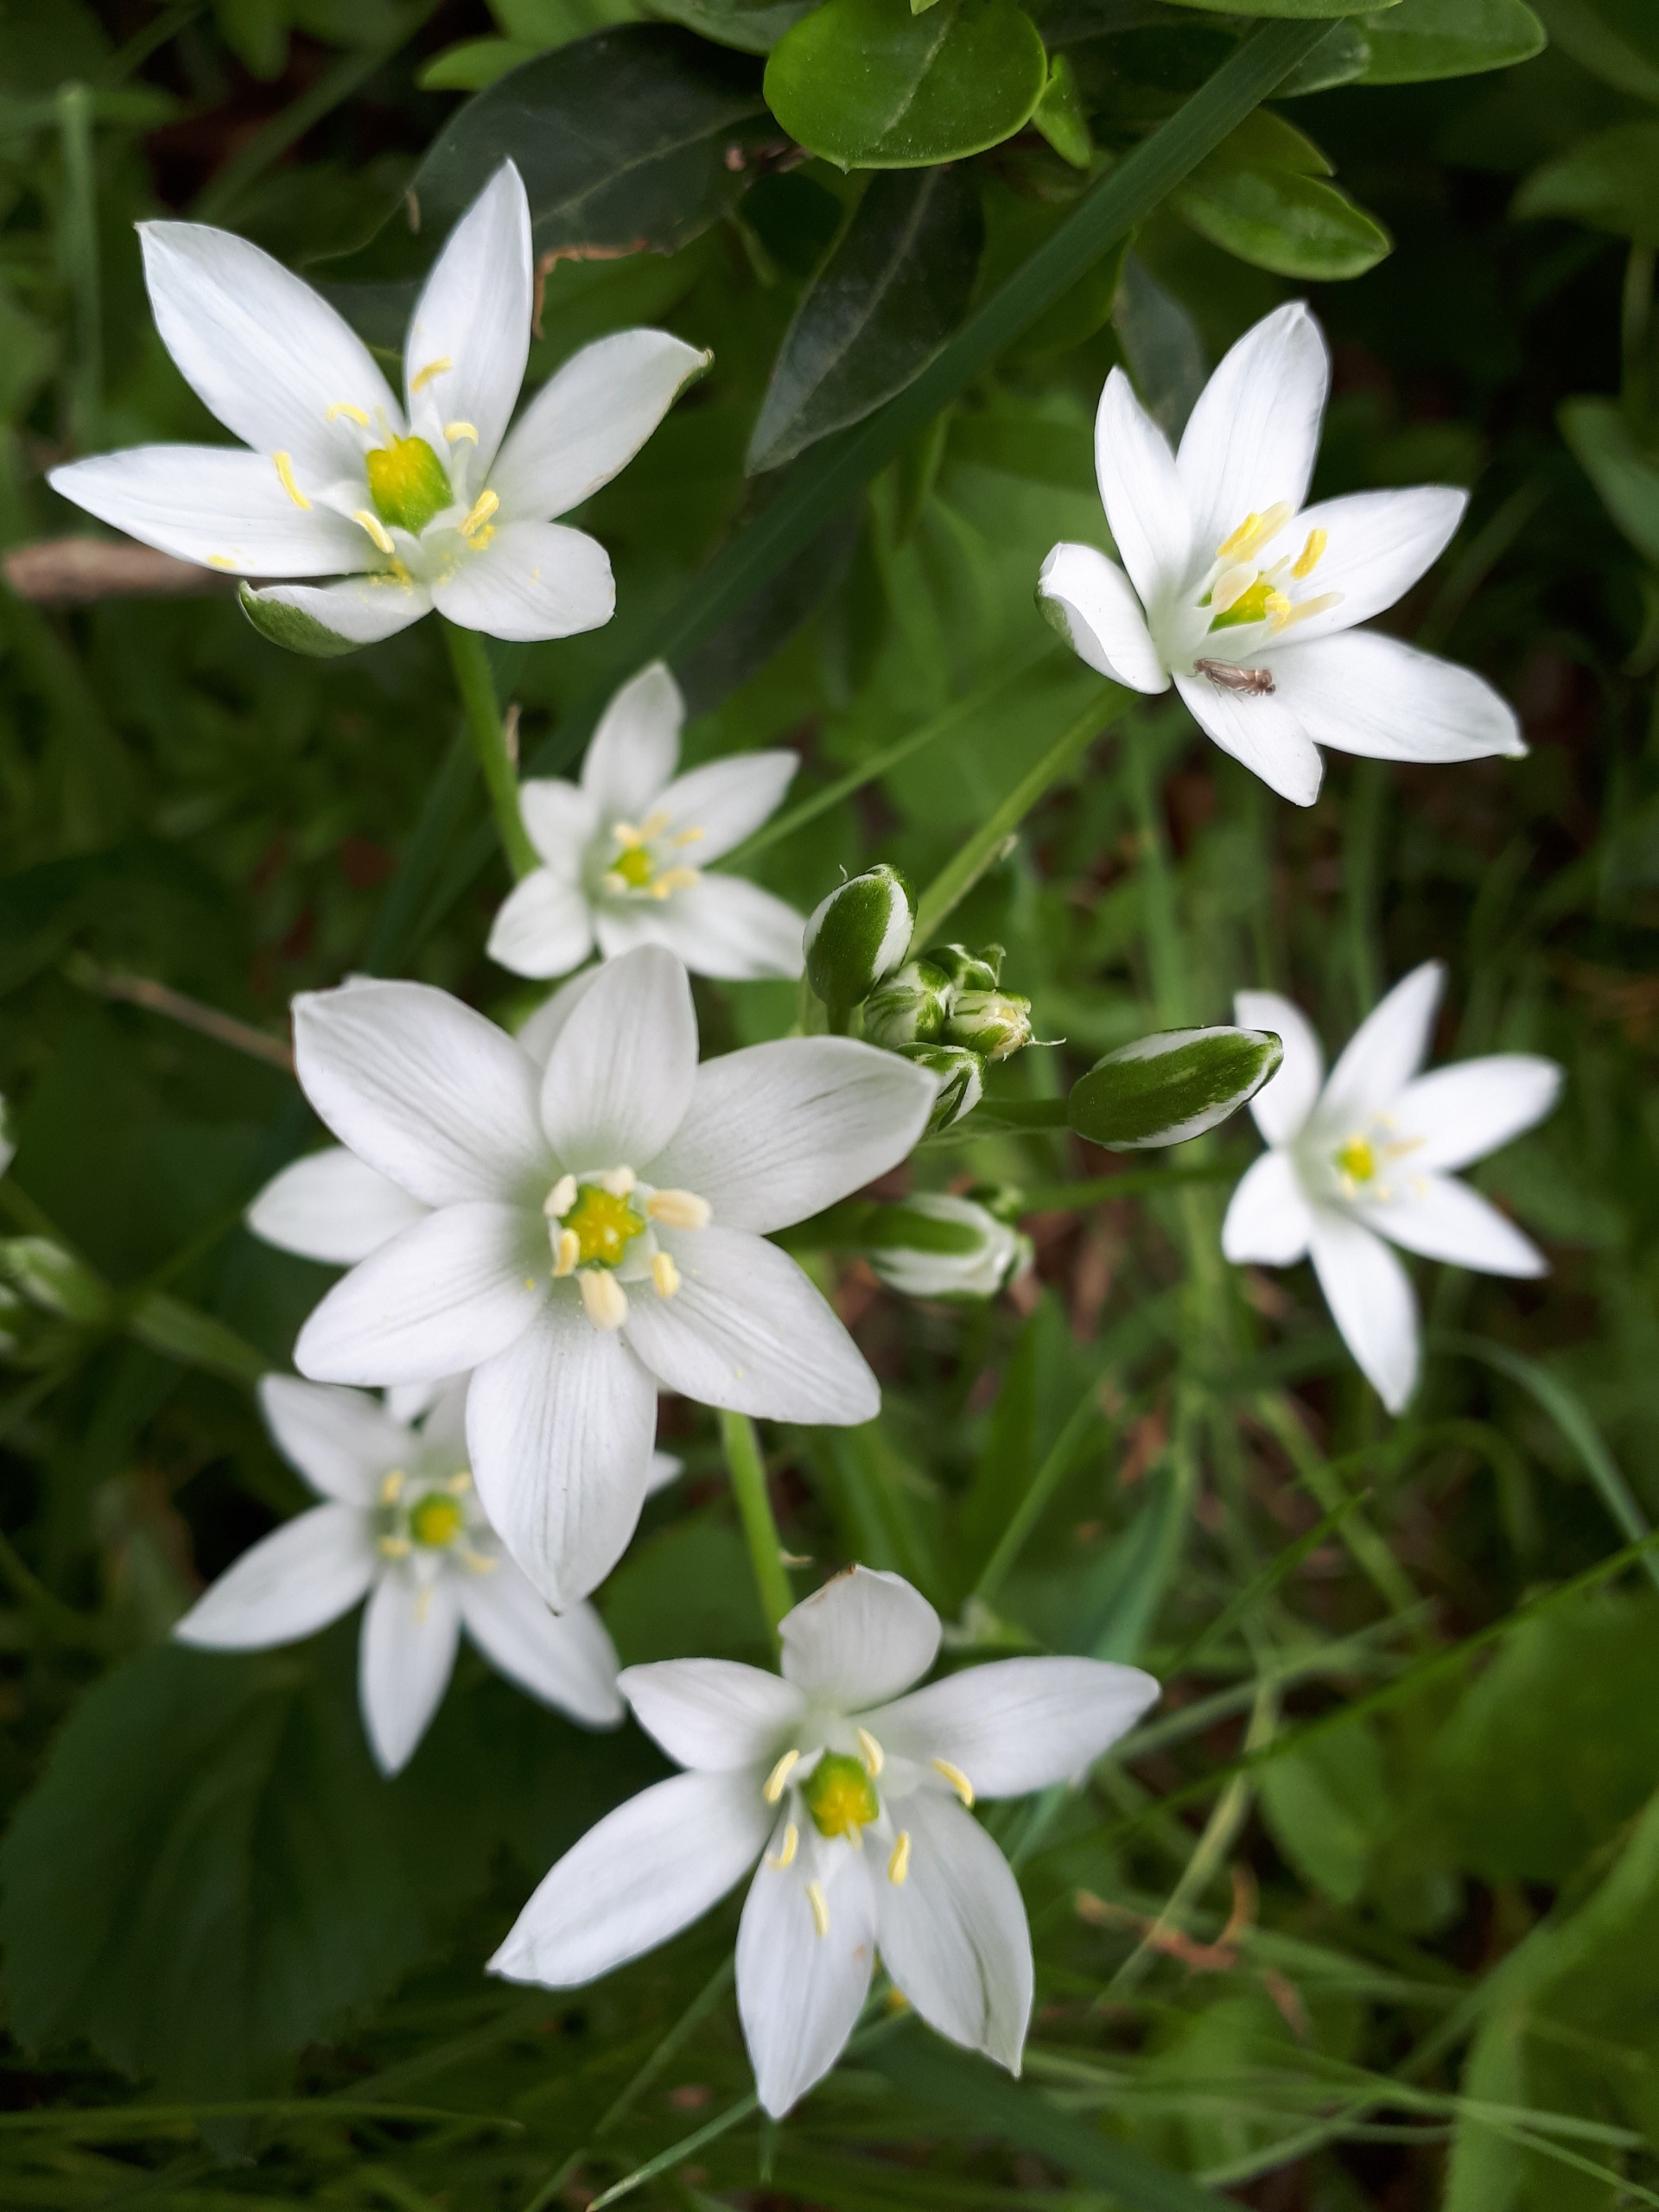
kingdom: Plantae
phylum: Tracheophyta
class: Liliopsida
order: Asparagales
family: Asparagaceae
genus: Ornithogalum
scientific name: Ornithogalum
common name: Fuglemælkslægten
